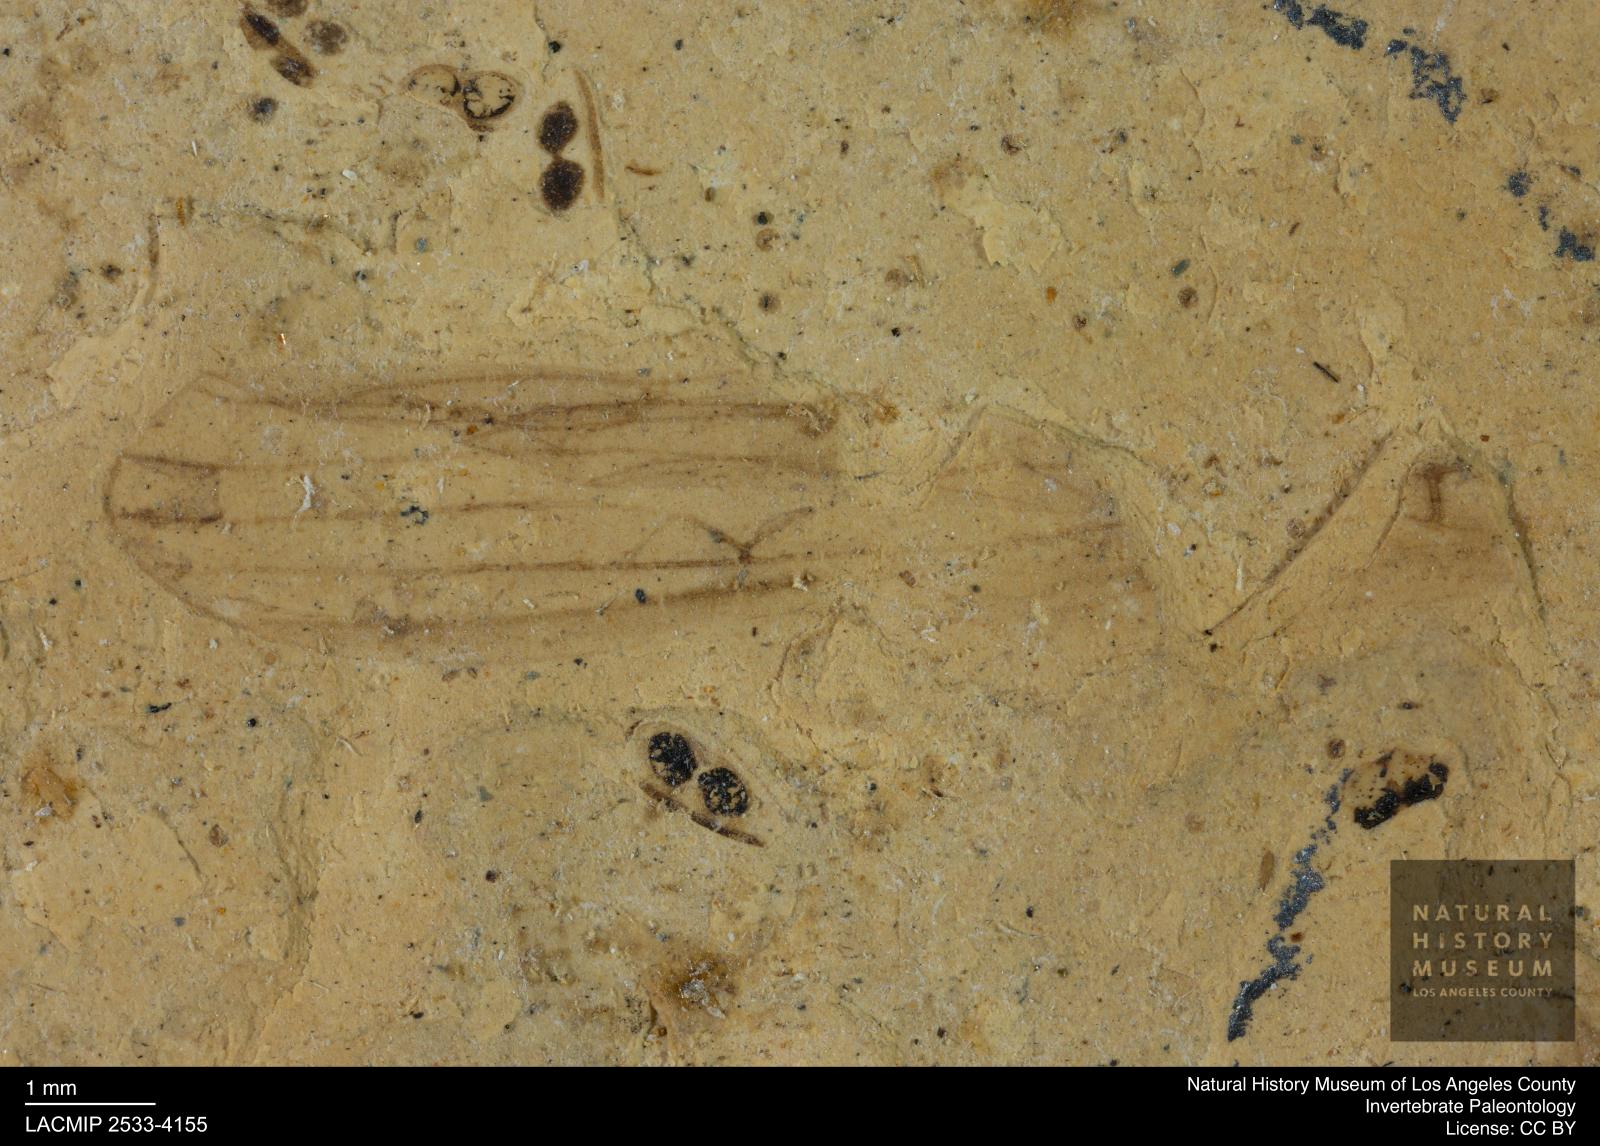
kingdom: Animalia
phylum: Arthropoda
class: Insecta
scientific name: Insecta
